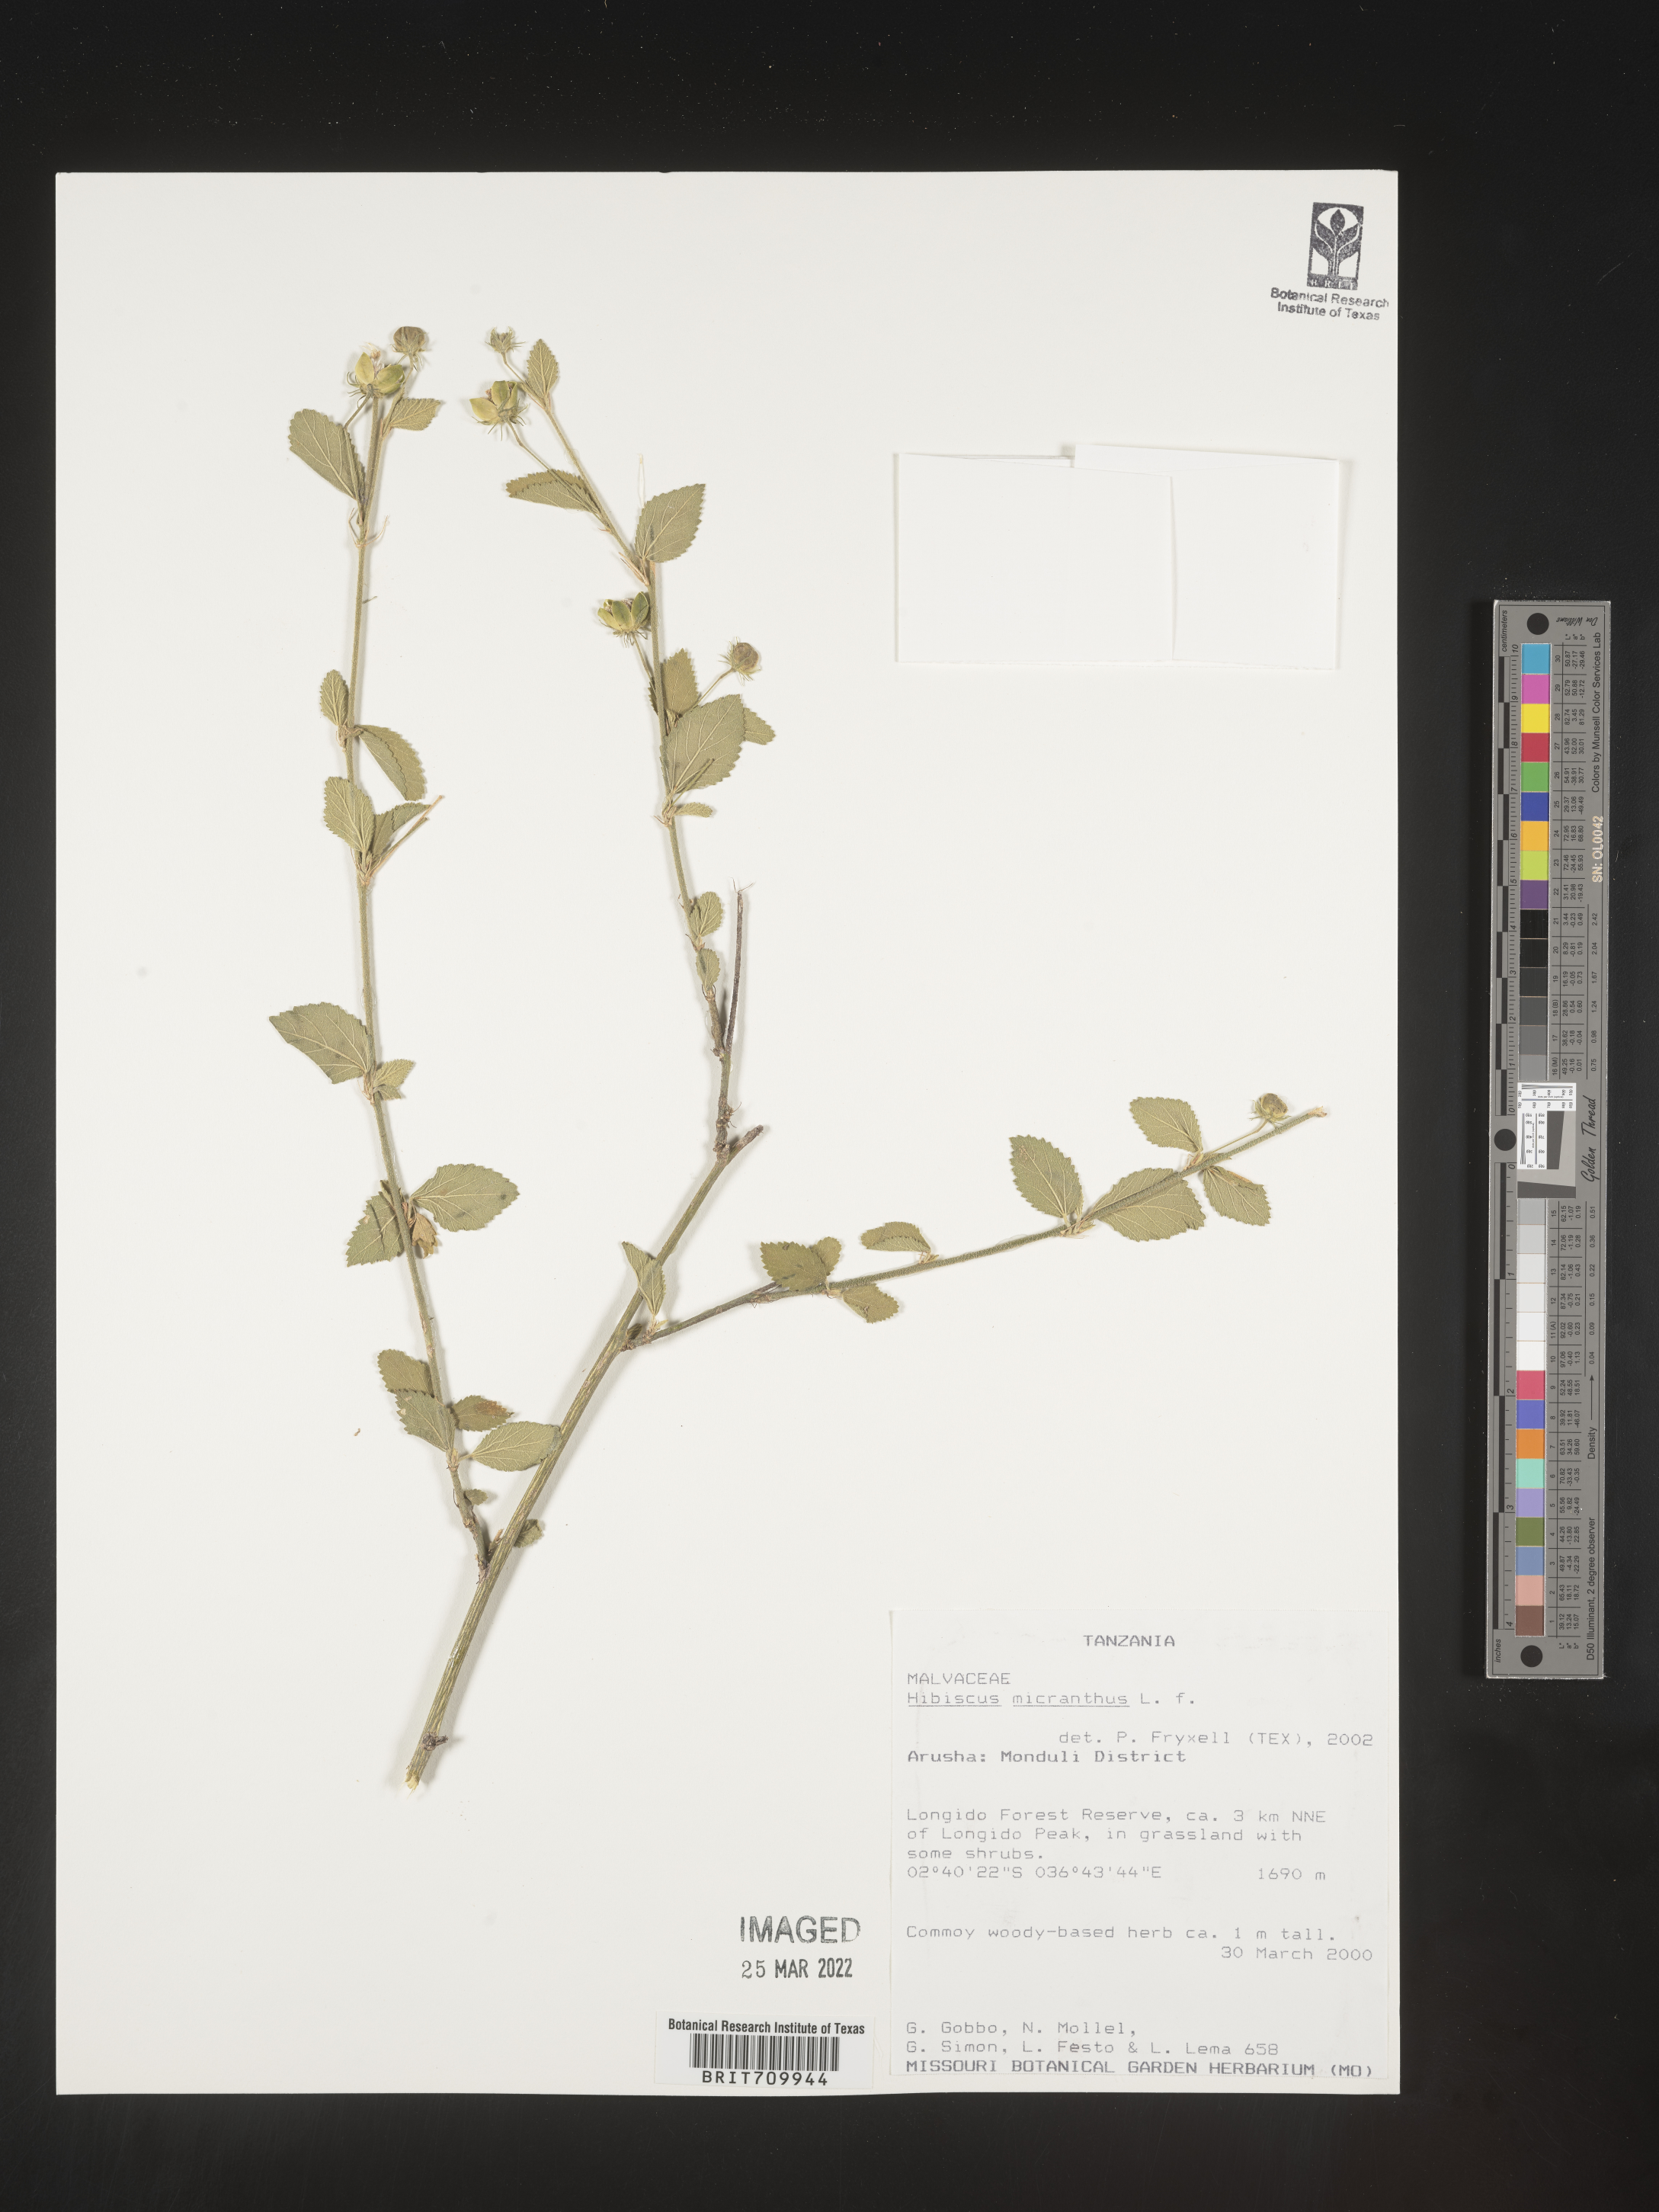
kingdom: Plantae
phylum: Tracheophyta
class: Magnoliopsida
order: Malvales
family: Malvaceae
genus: Hibiscus
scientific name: Hibiscus
